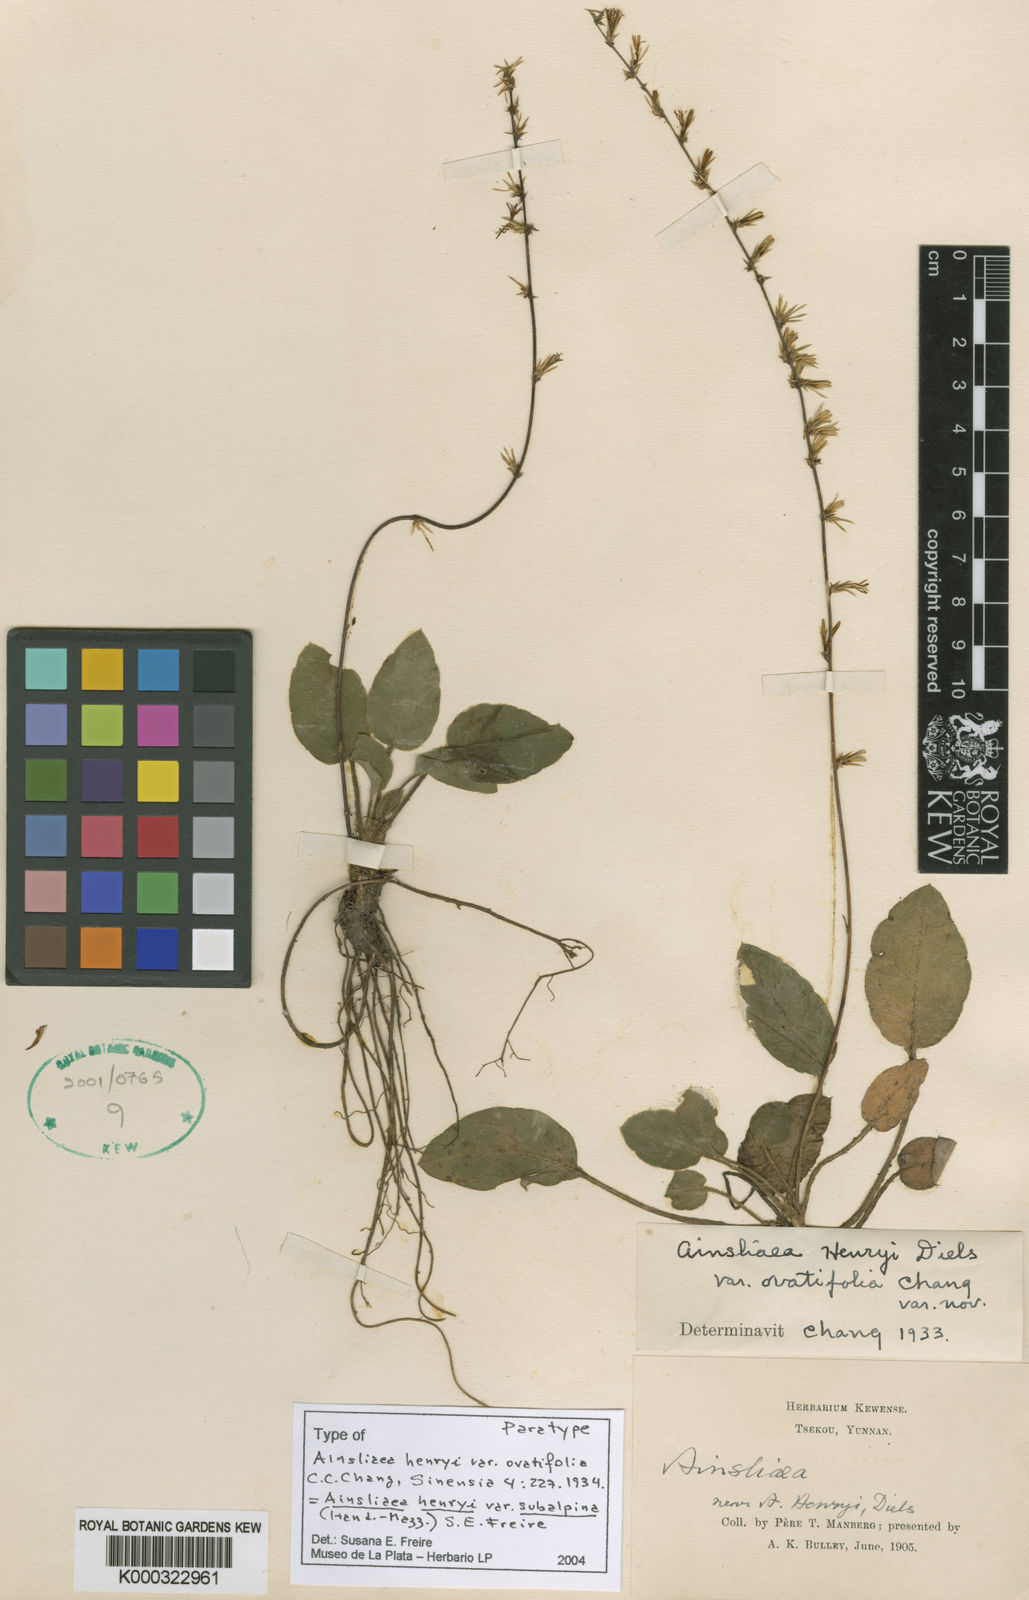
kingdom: Plantae
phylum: Tracheophyta
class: Magnoliopsida
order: Asterales
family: Asteraceae
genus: Ainsliaea
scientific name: Ainsliaea henryi
